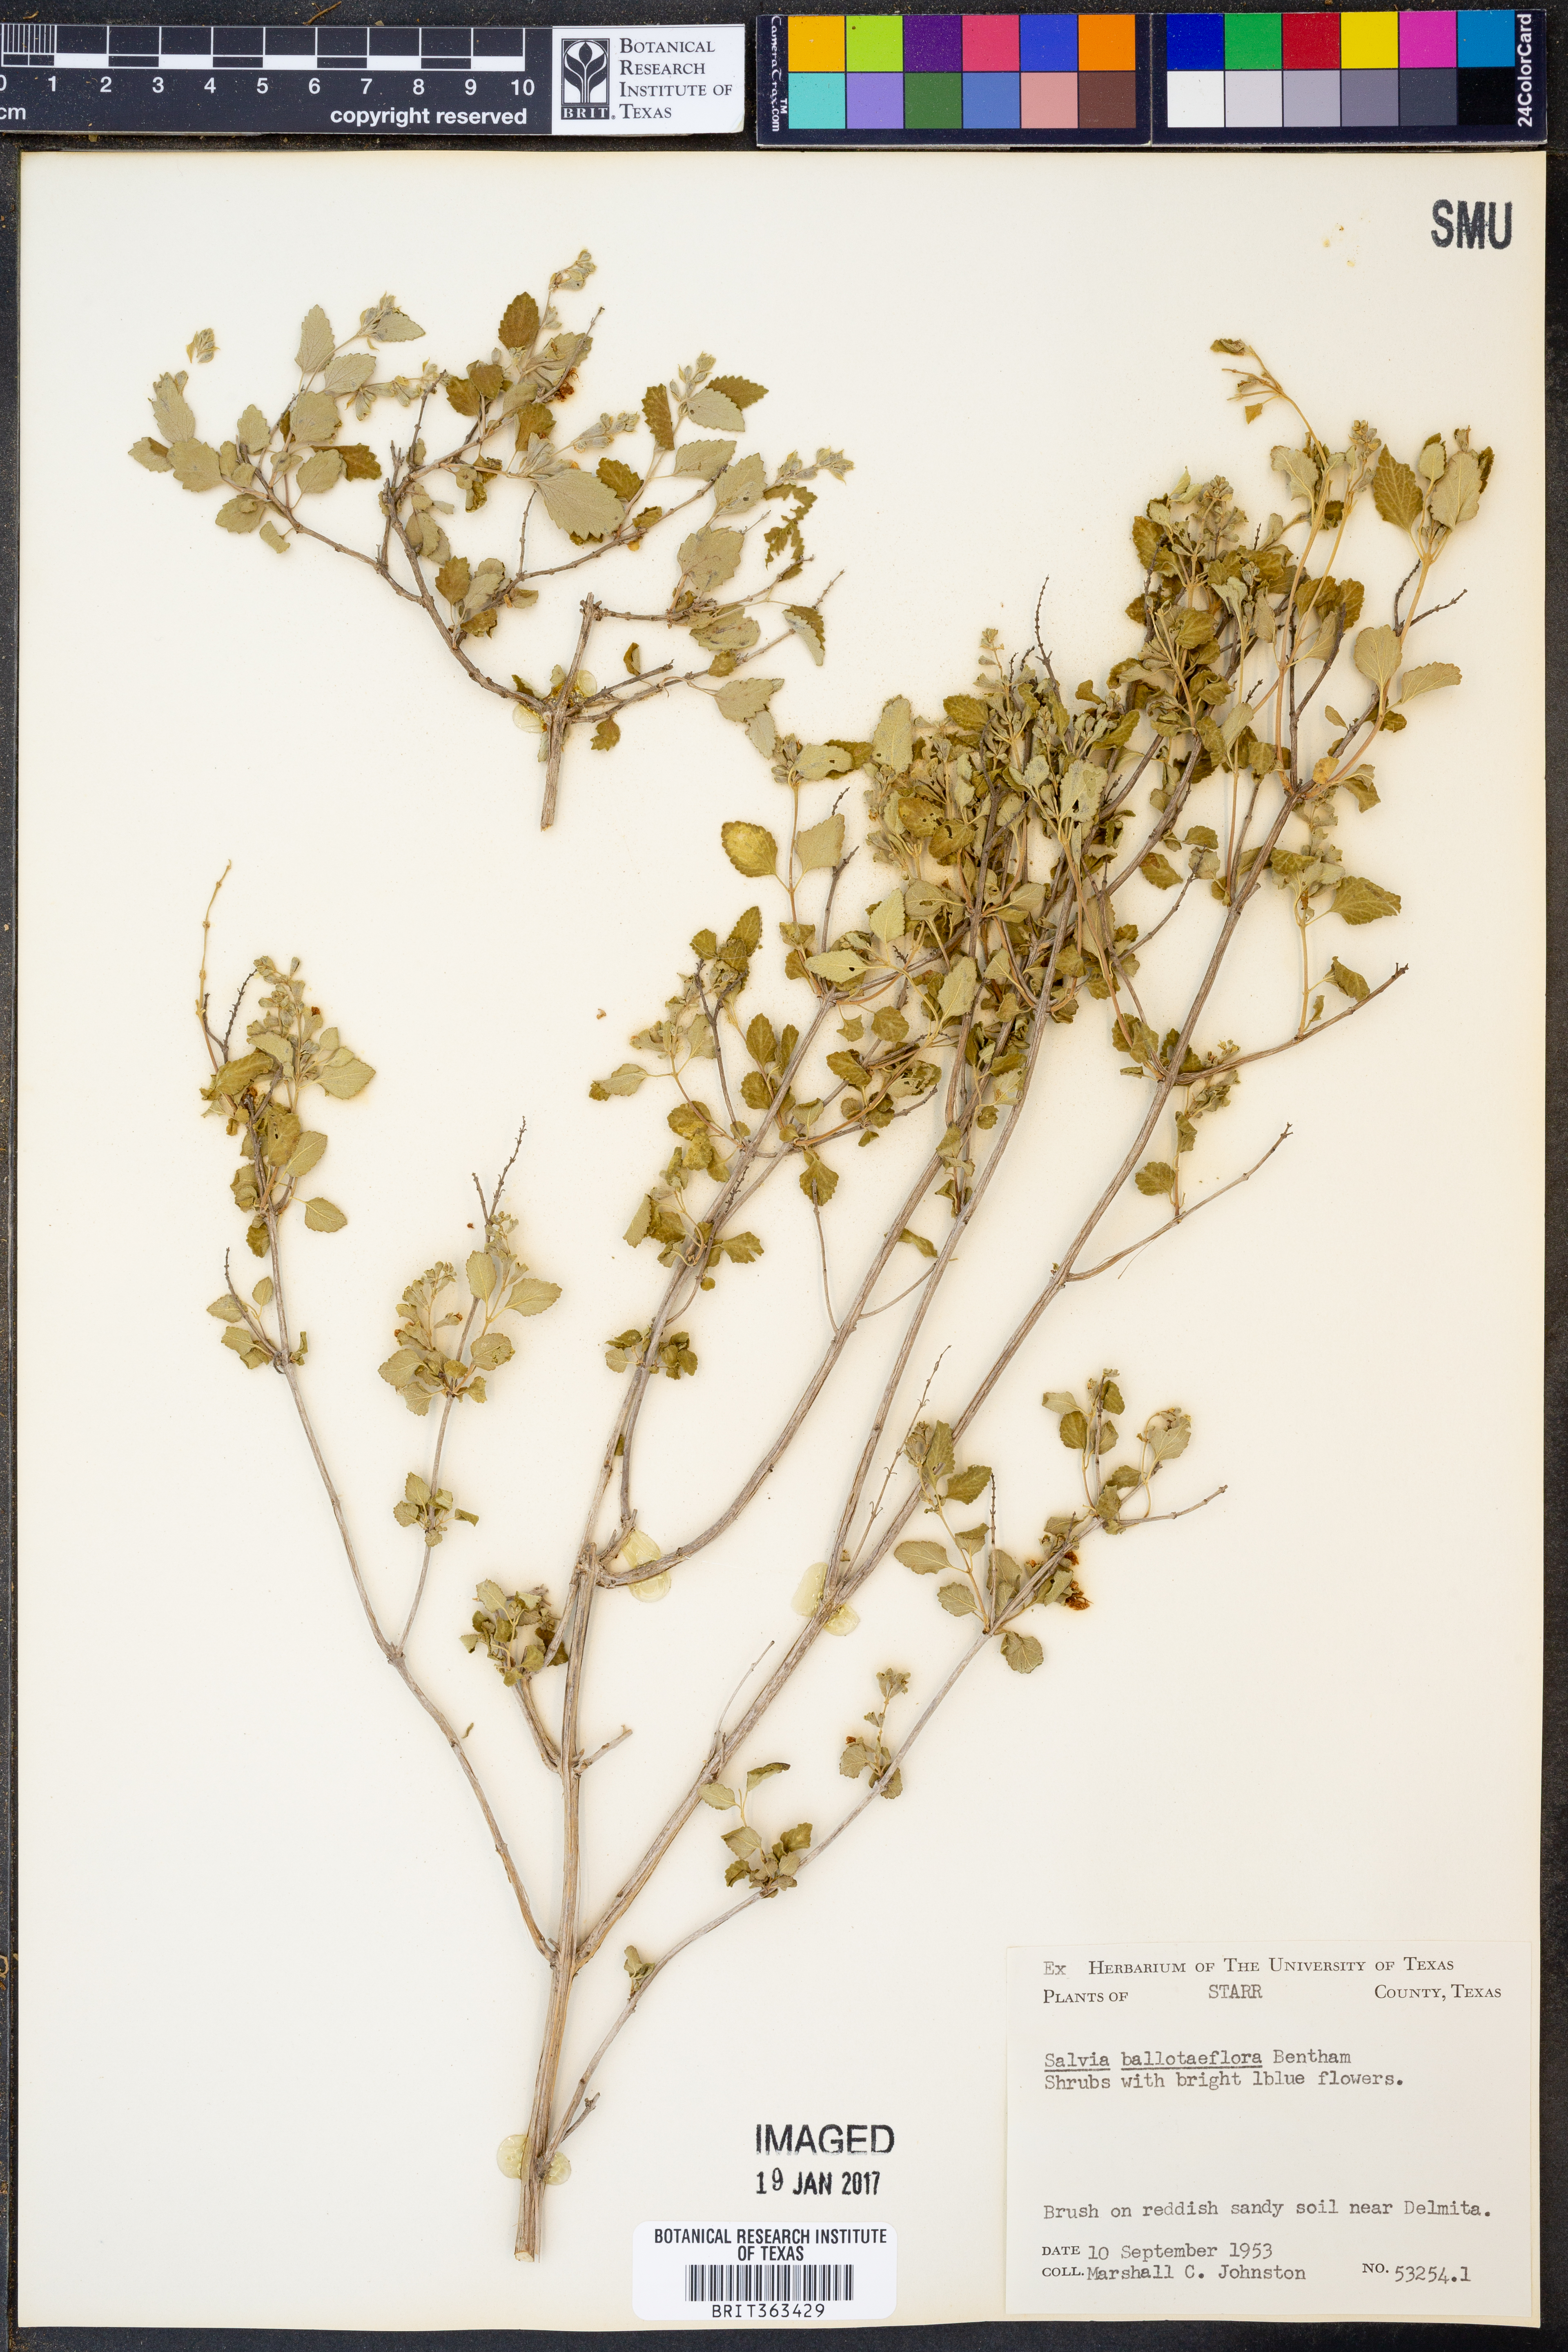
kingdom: Plantae
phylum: Tracheophyta
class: Magnoliopsida
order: Lamiales
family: Lamiaceae
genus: Salvia
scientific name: Salvia ballotiflora
